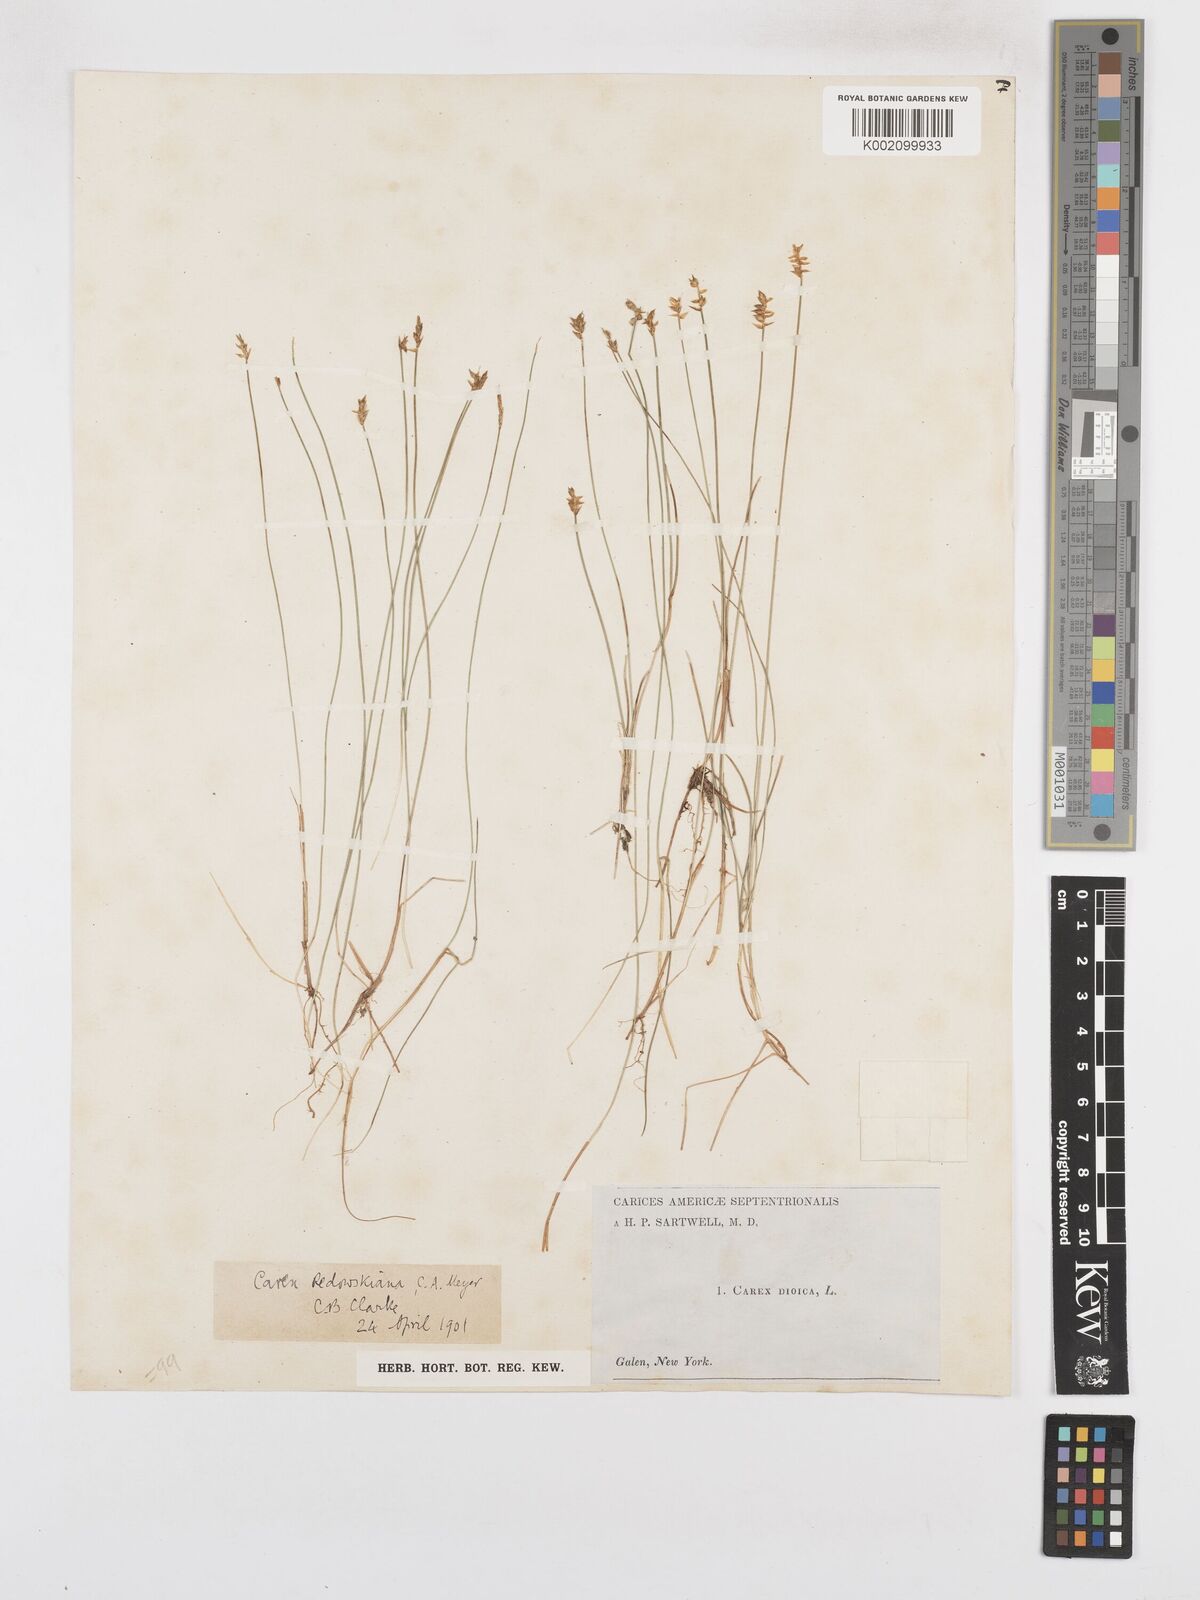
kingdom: Plantae
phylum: Tracheophyta
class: Liliopsida
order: Poales
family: Cyperaceae
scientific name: Cyperaceae
